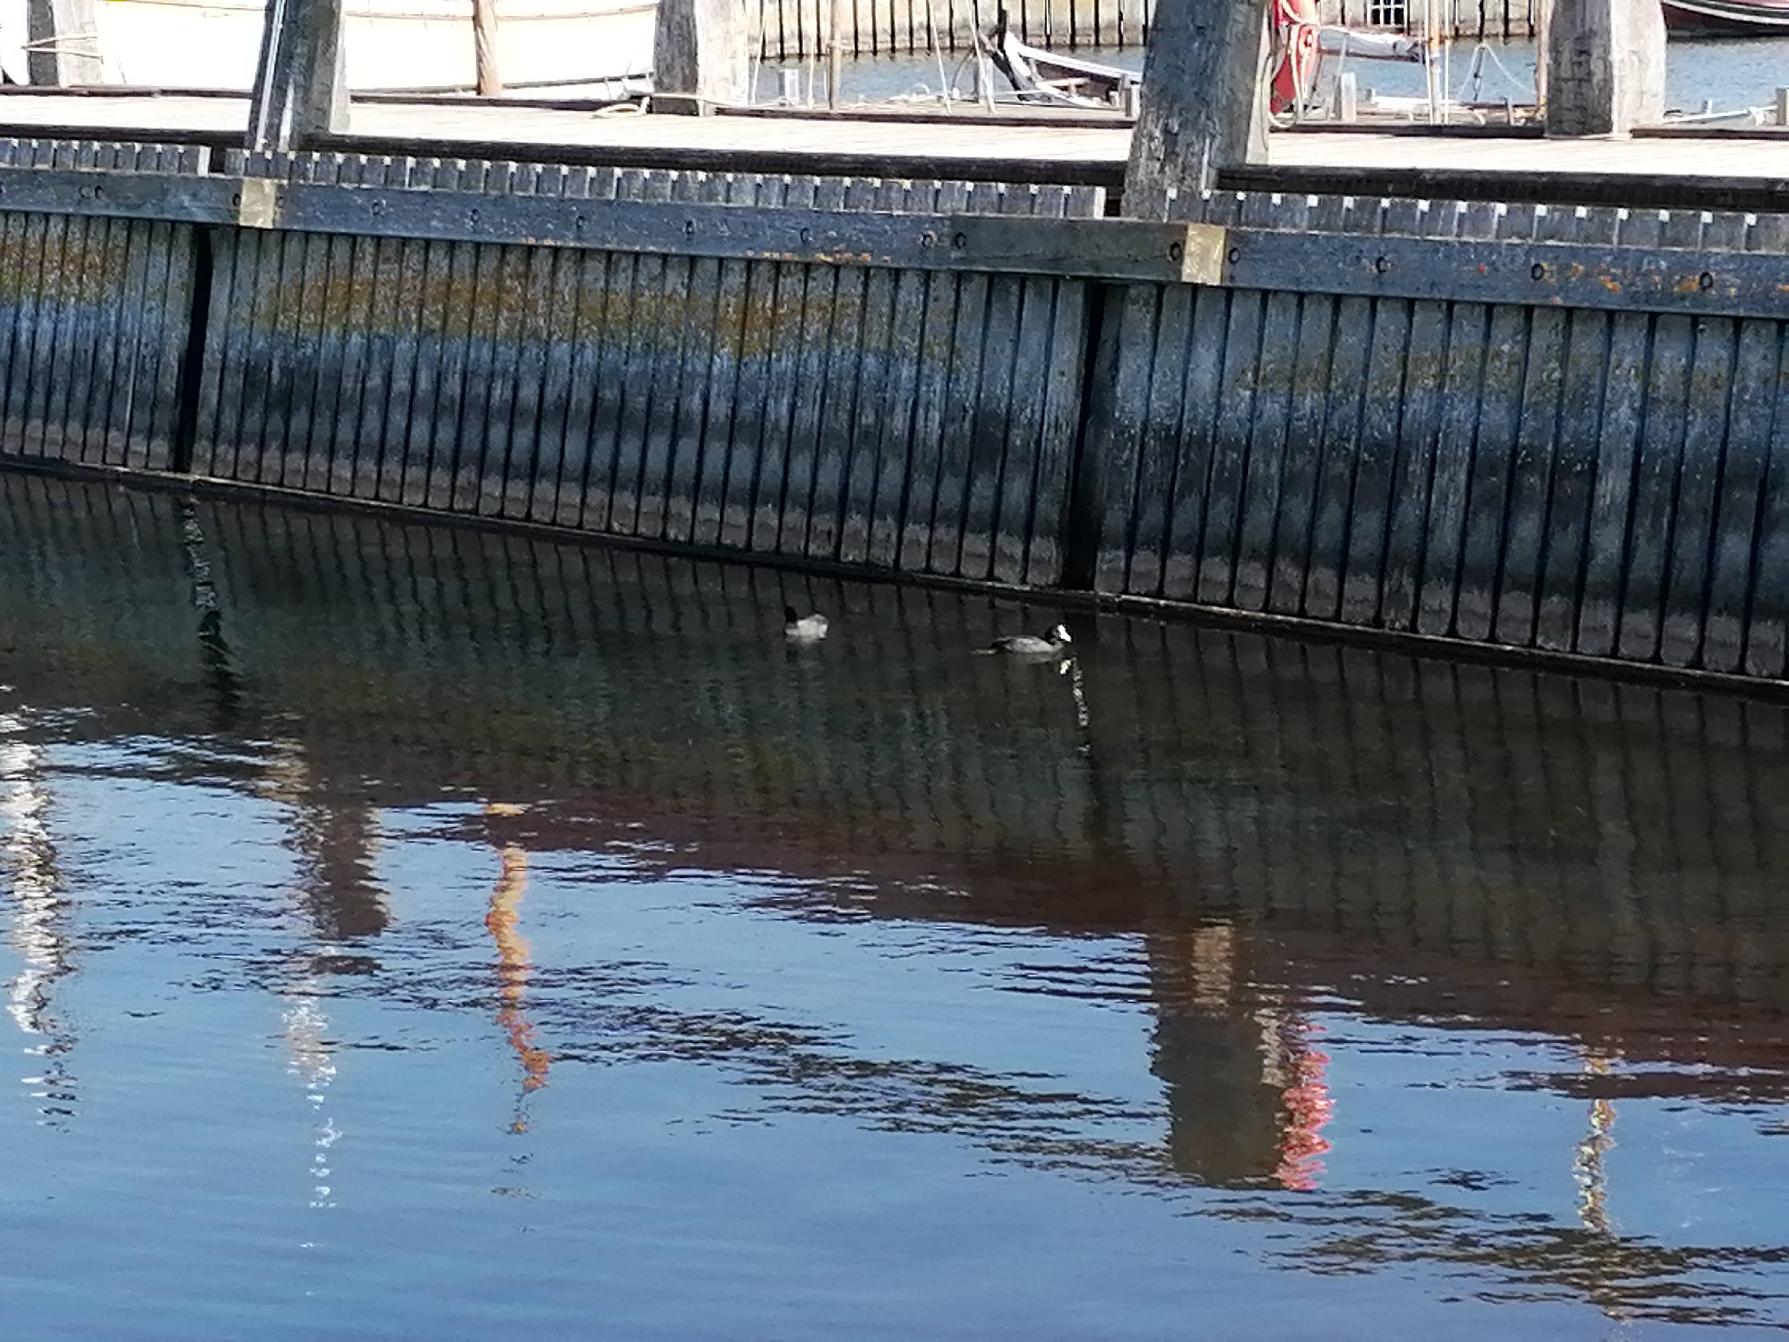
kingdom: Animalia
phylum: Chordata
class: Aves
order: Gruiformes
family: Rallidae
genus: Fulica
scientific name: Fulica atra
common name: Blishøne
